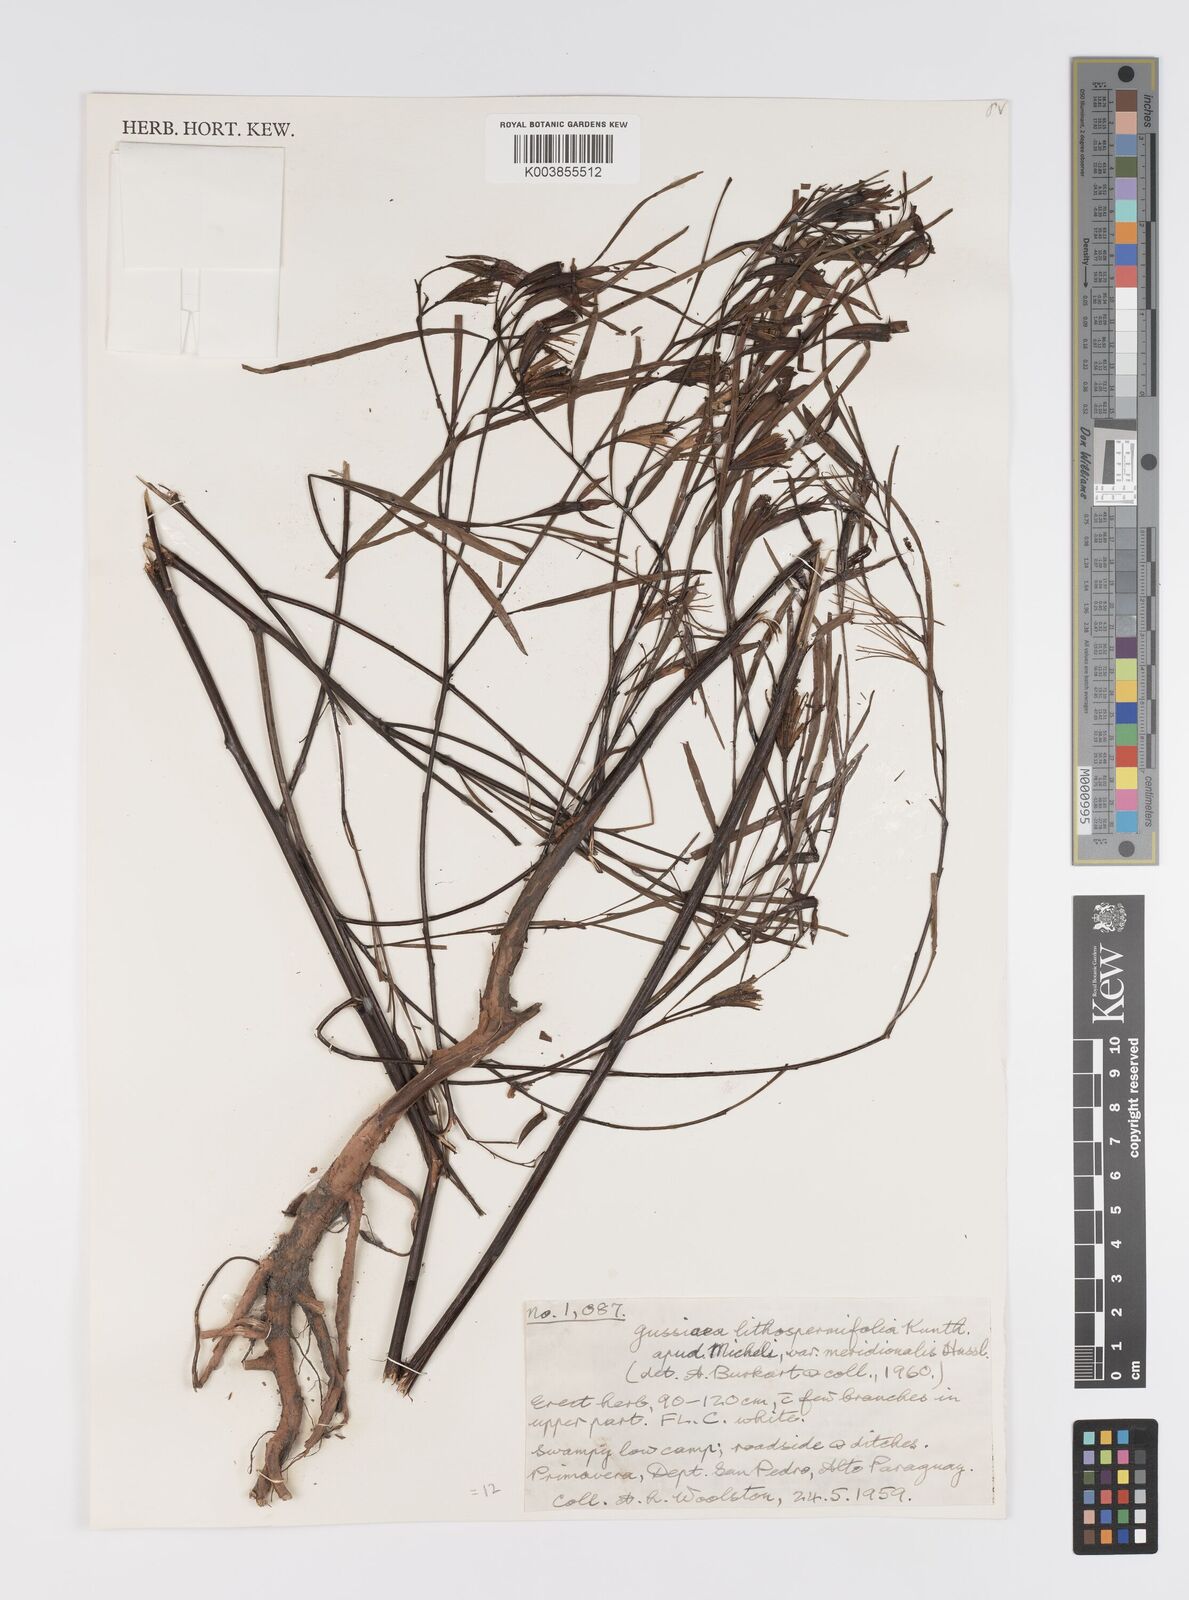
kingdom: Plantae
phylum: Tracheophyta
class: Magnoliopsida
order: Myrtales
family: Onagraceae
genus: Ludwigia
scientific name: Ludwigia rigida
